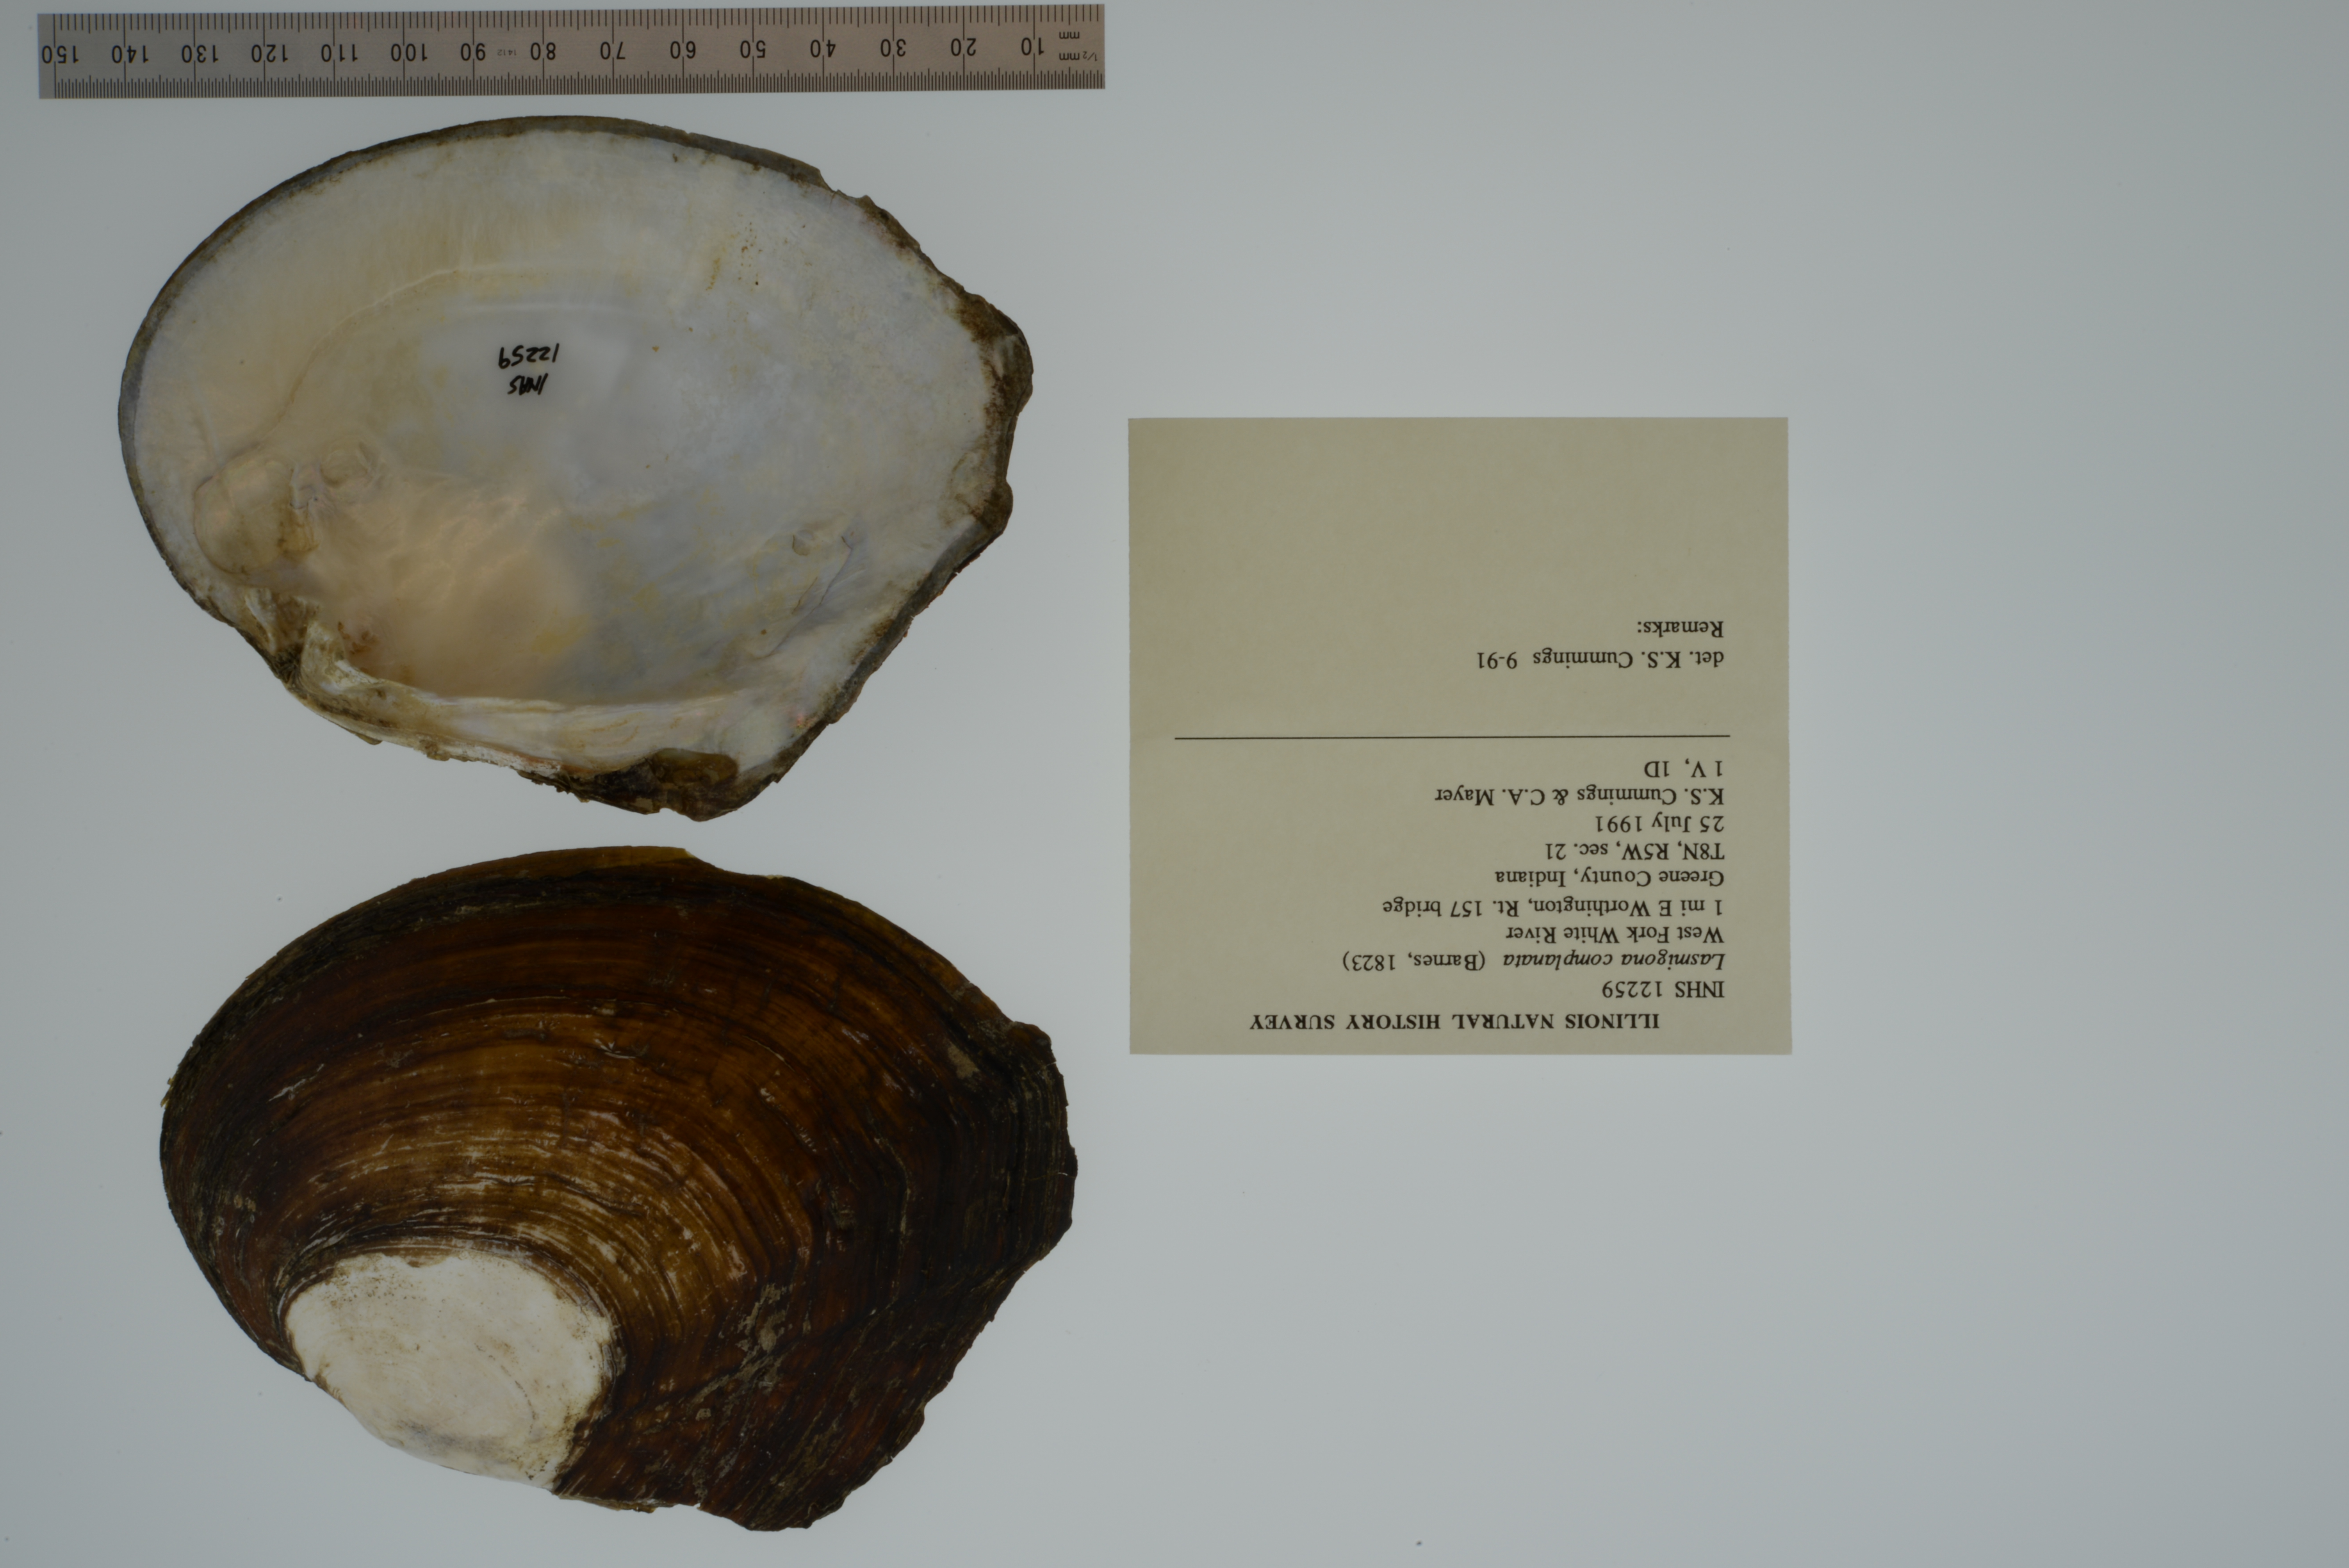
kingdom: Animalia
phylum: Mollusca
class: Bivalvia
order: Unionida
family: Unionidae
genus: Lasmigona
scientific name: Lasmigona complanata
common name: White heelsplitter
